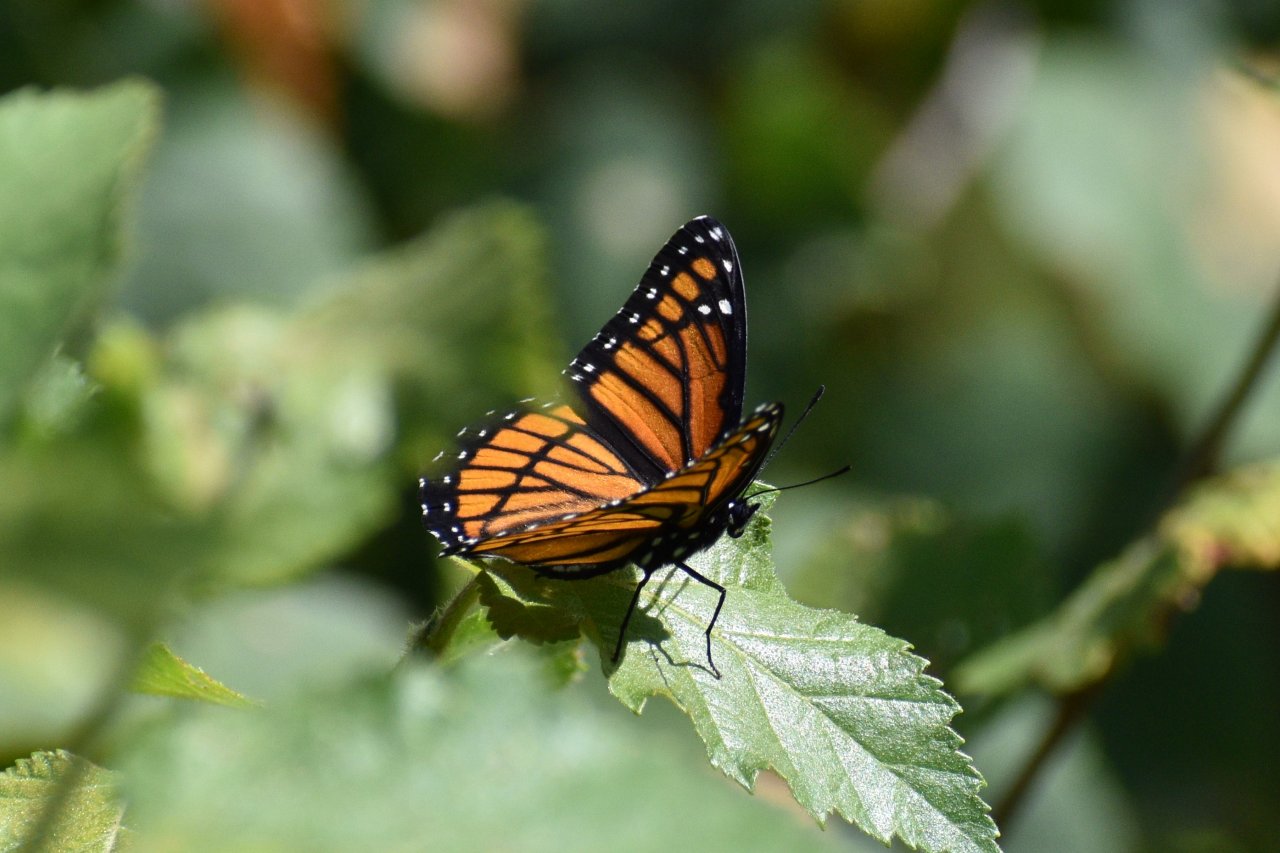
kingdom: Animalia
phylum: Arthropoda
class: Insecta
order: Lepidoptera
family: Nymphalidae
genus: Limenitis
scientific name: Limenitis archippus
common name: Viceroy
